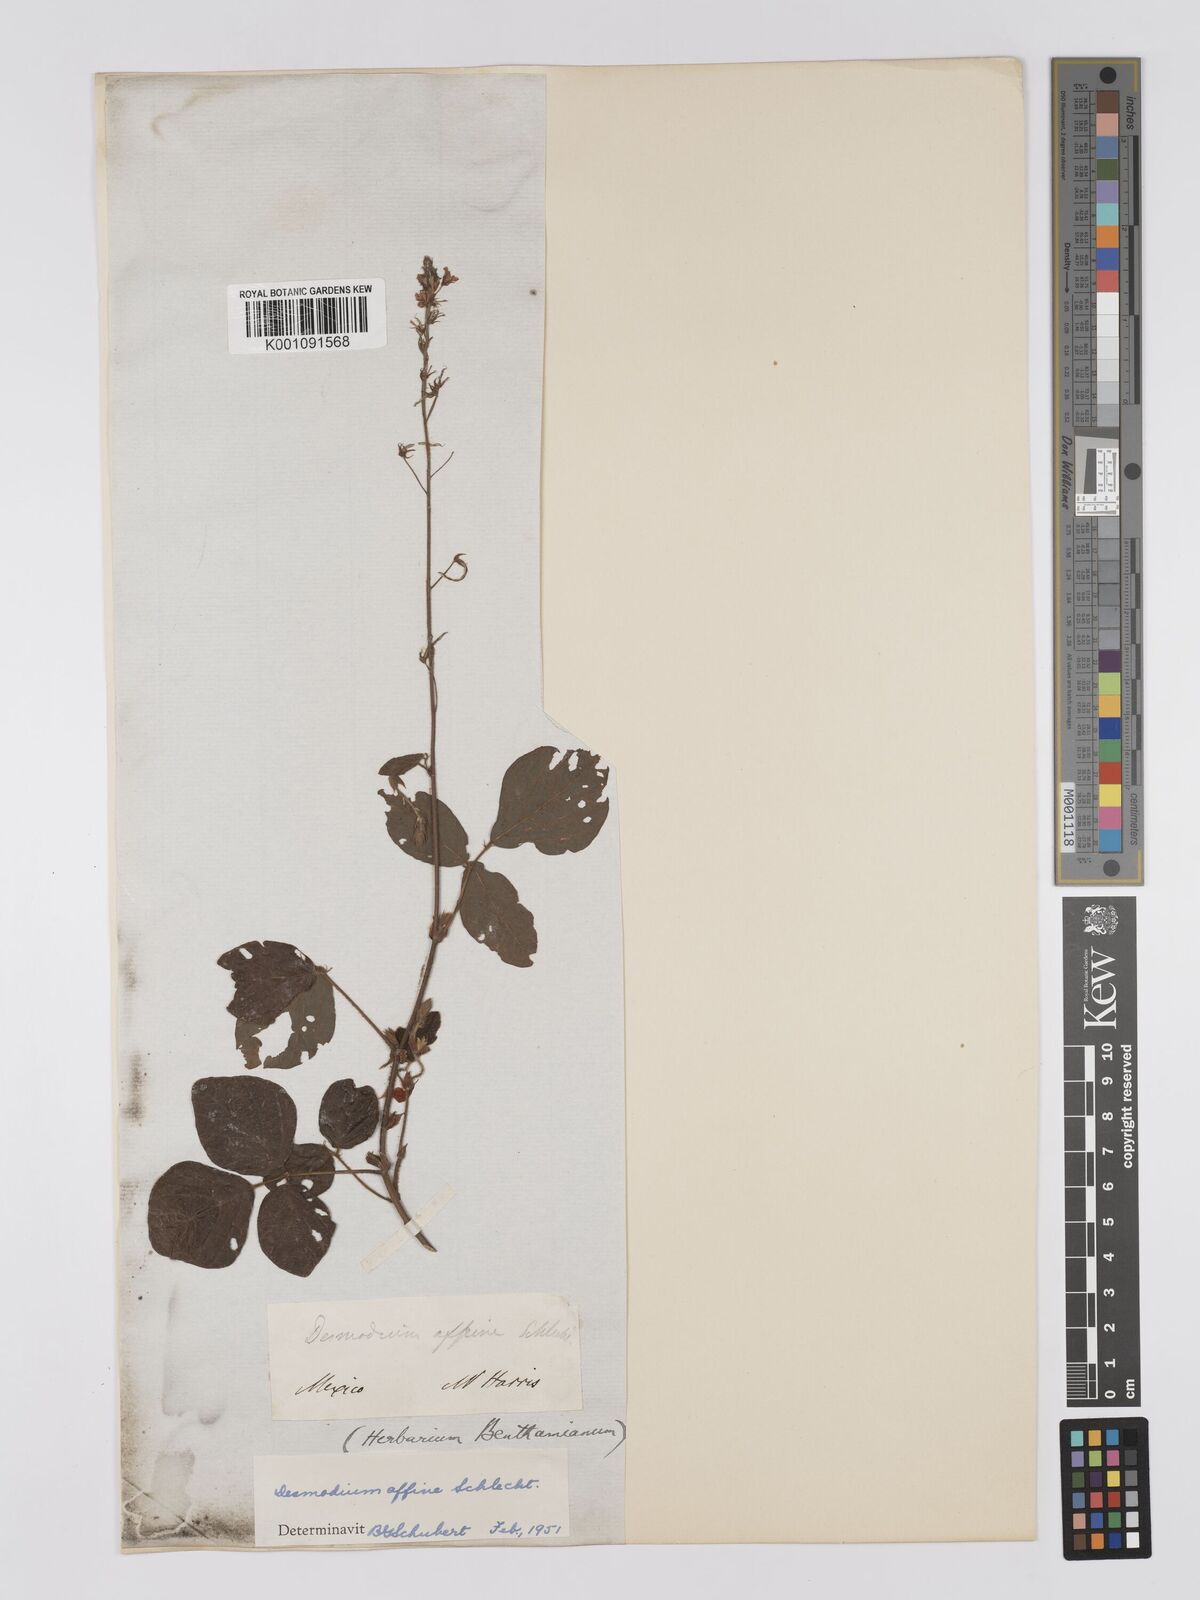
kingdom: Plantae
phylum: Tracheophyta
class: Magnoliopsida
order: Fabales
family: Fabaceae
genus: Desmodium
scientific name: Desmodium affine
